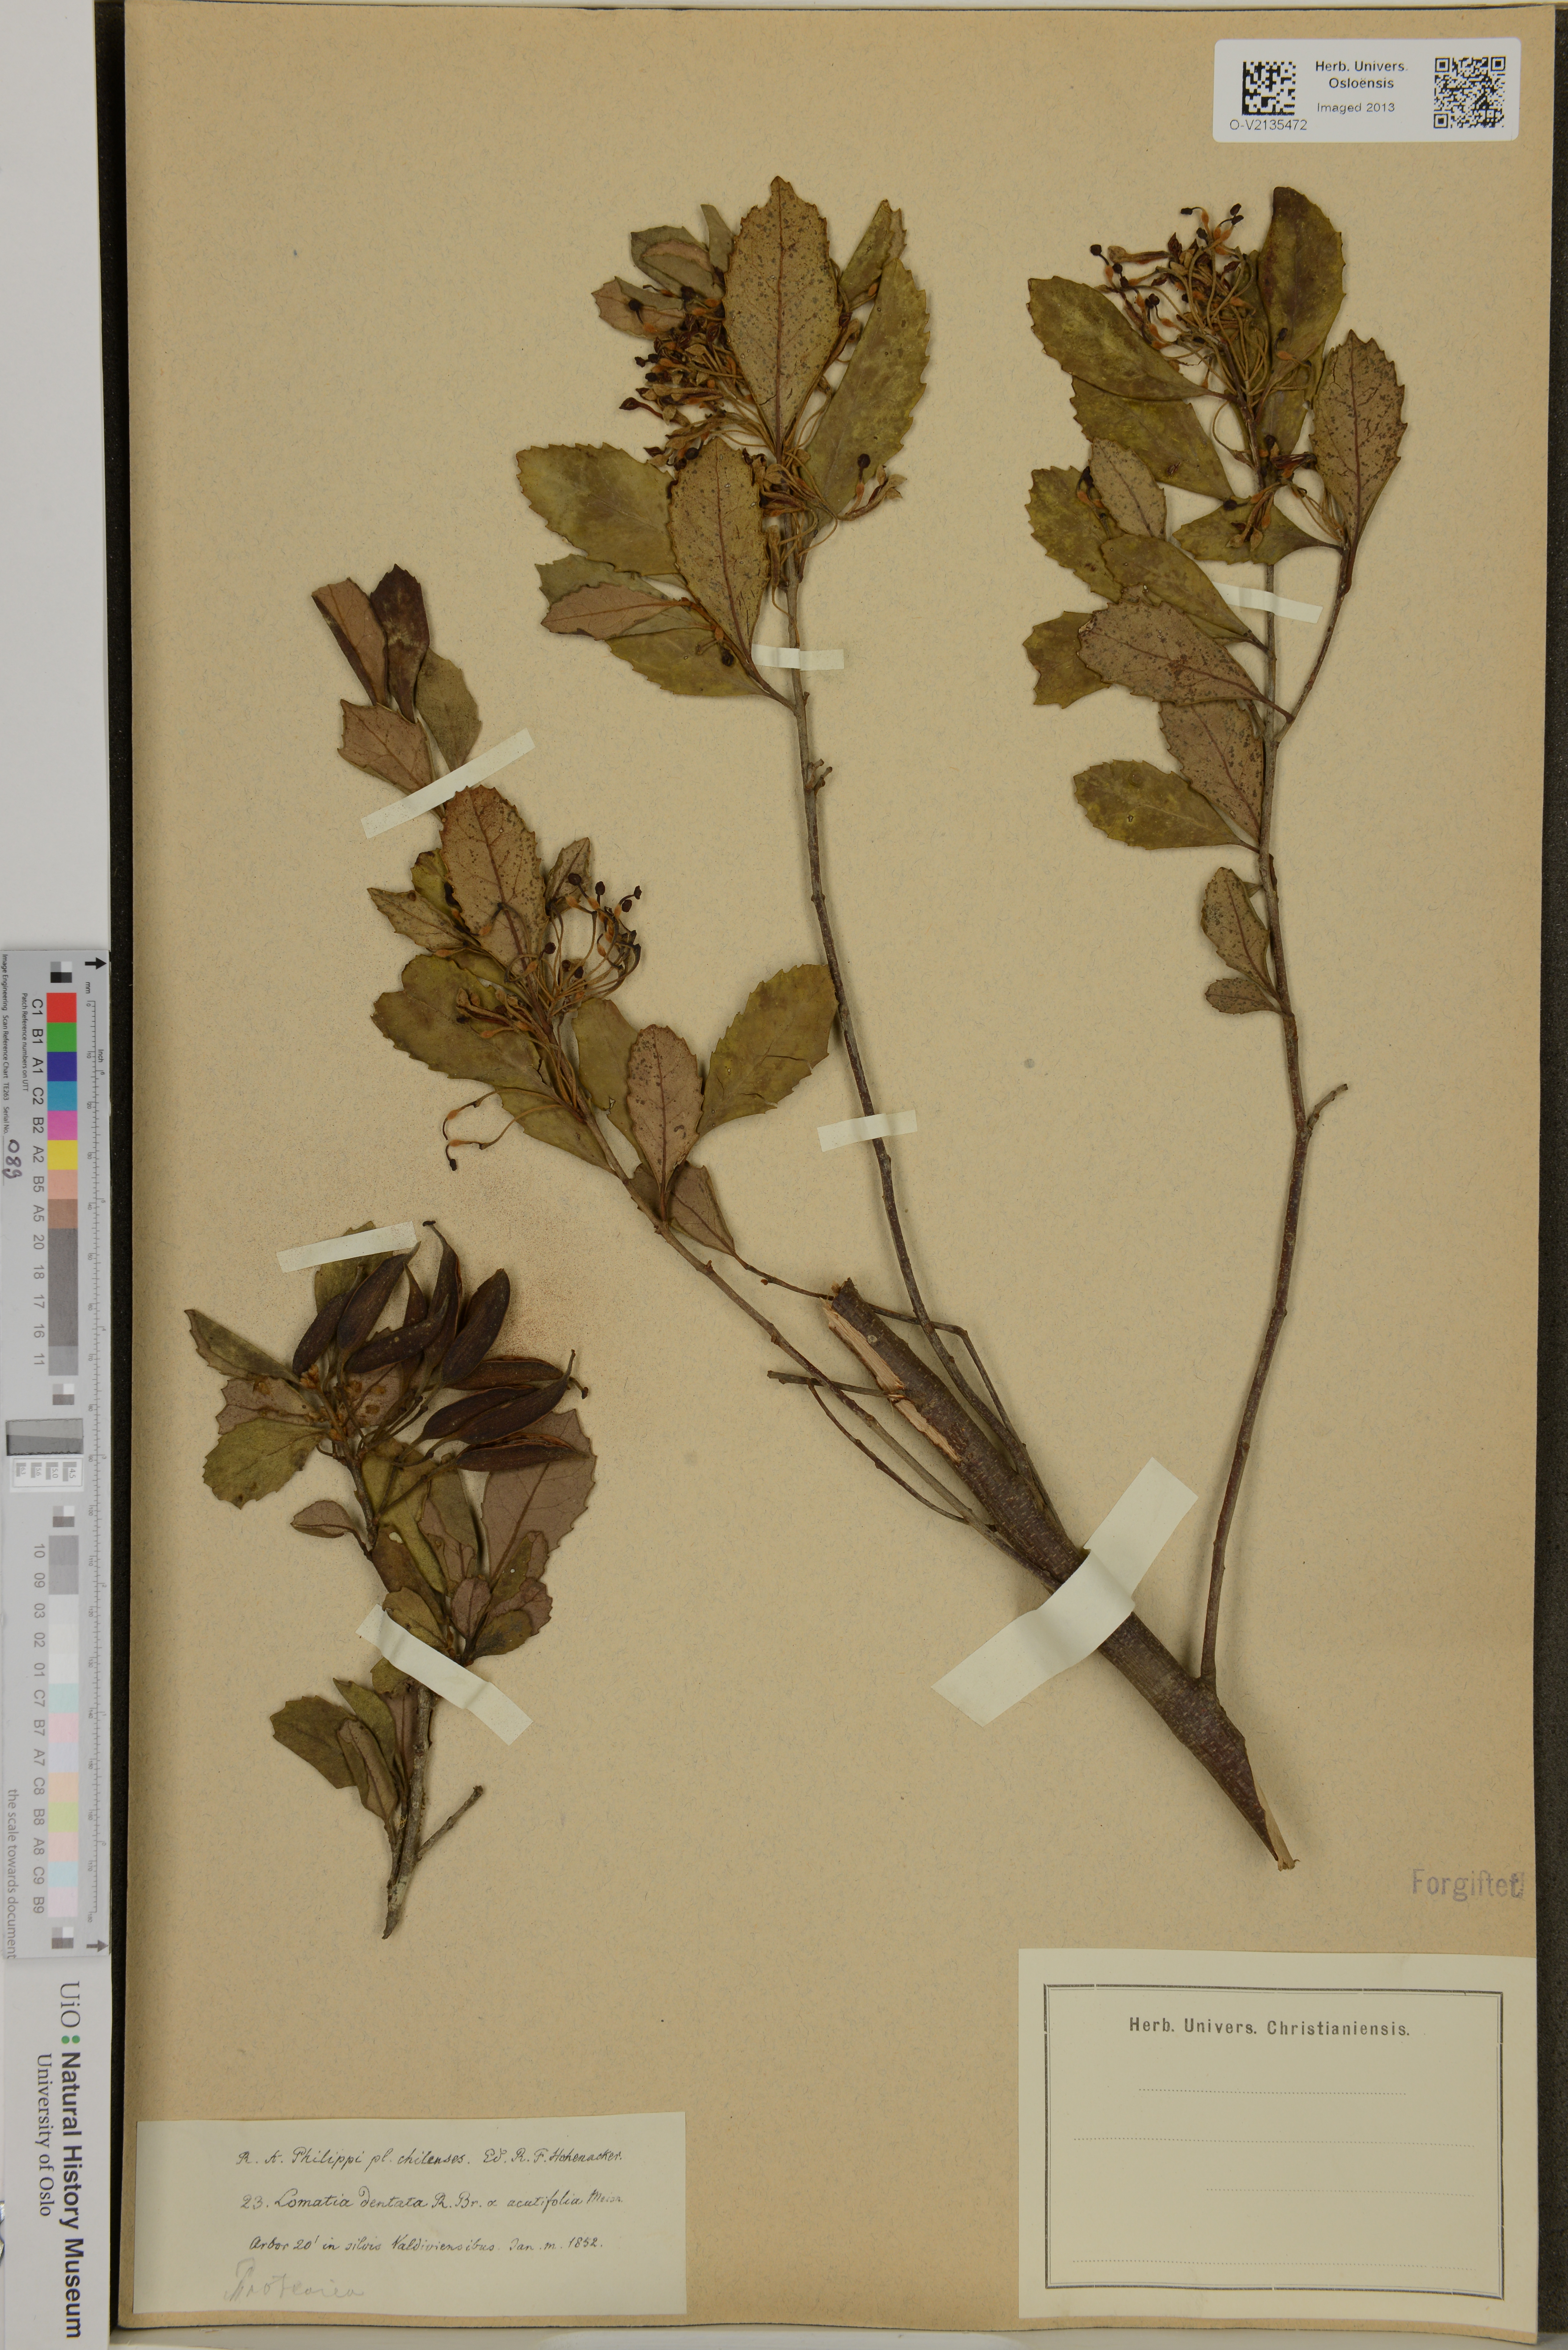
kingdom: Plantae
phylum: Tracheophyta
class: Magnoliopsida
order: Proteales
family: Proteaceae
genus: Lomatia
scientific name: Lomatia dentata
